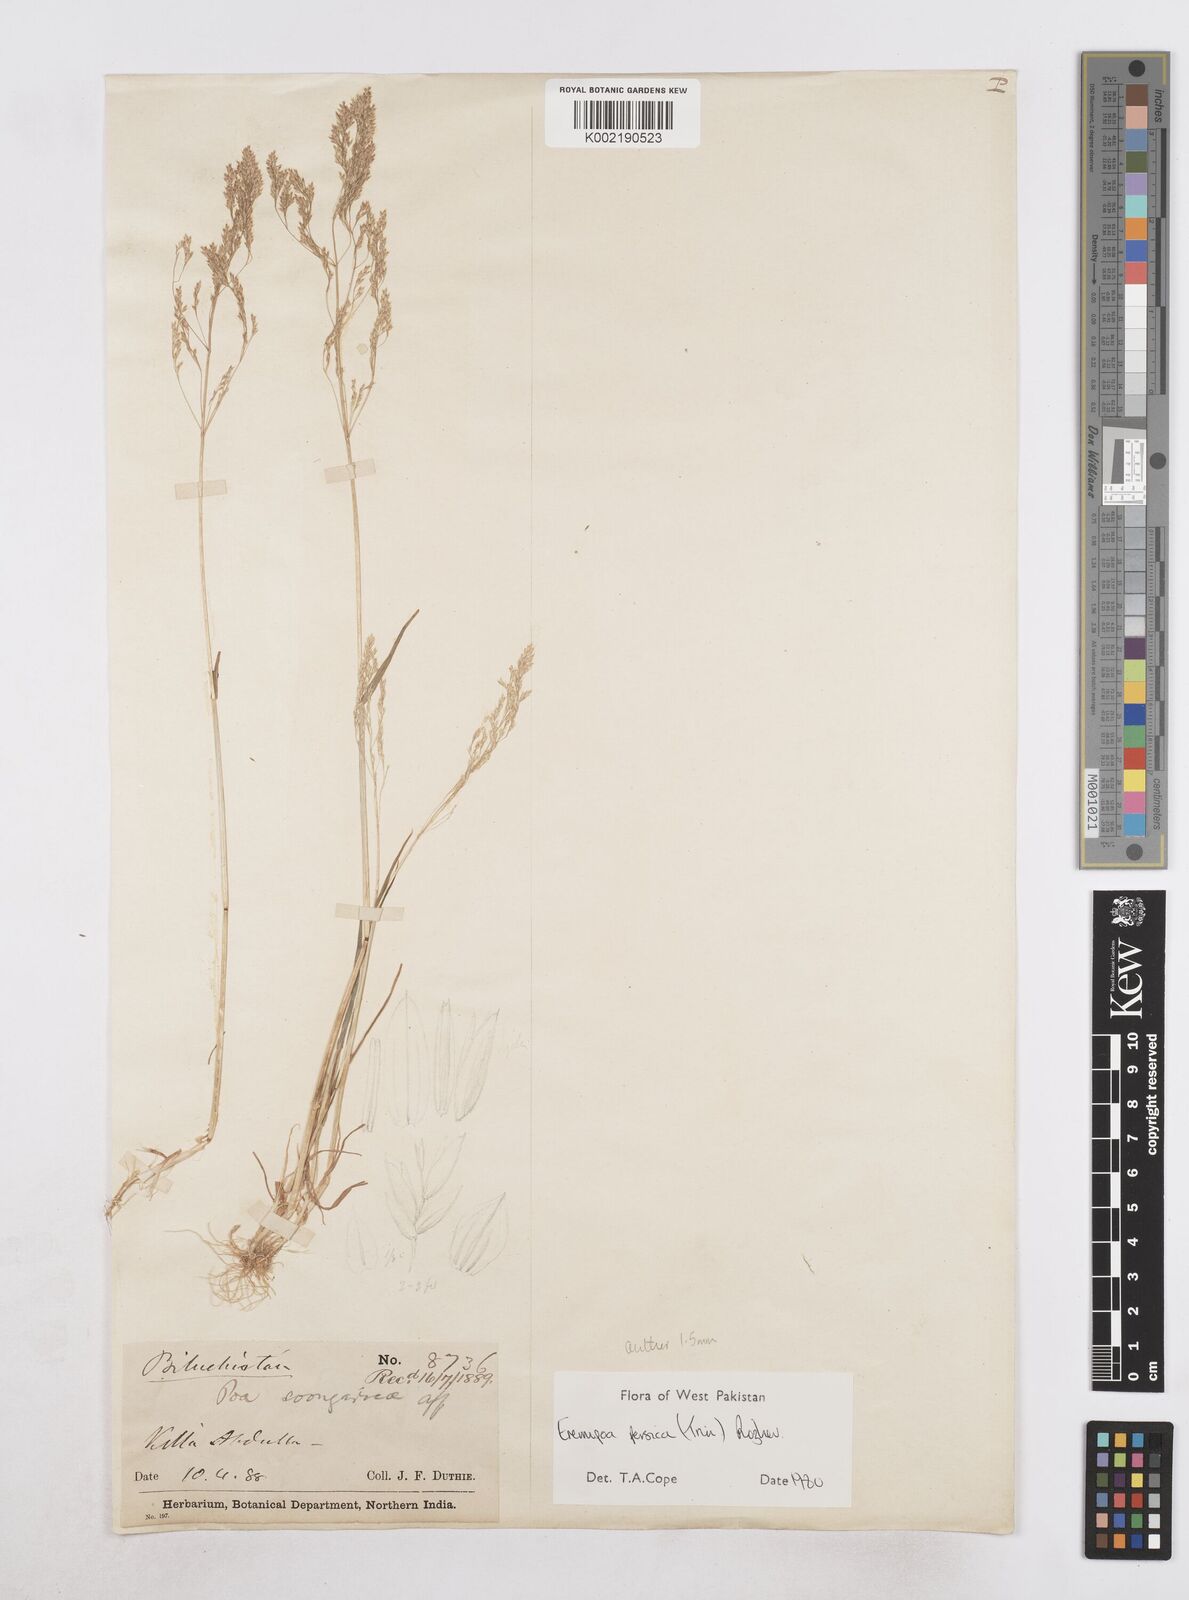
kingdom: Plantae
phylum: Tracheophyta
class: Liliopsida
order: Poales
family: Poaceae
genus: Poa
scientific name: Poa persica
